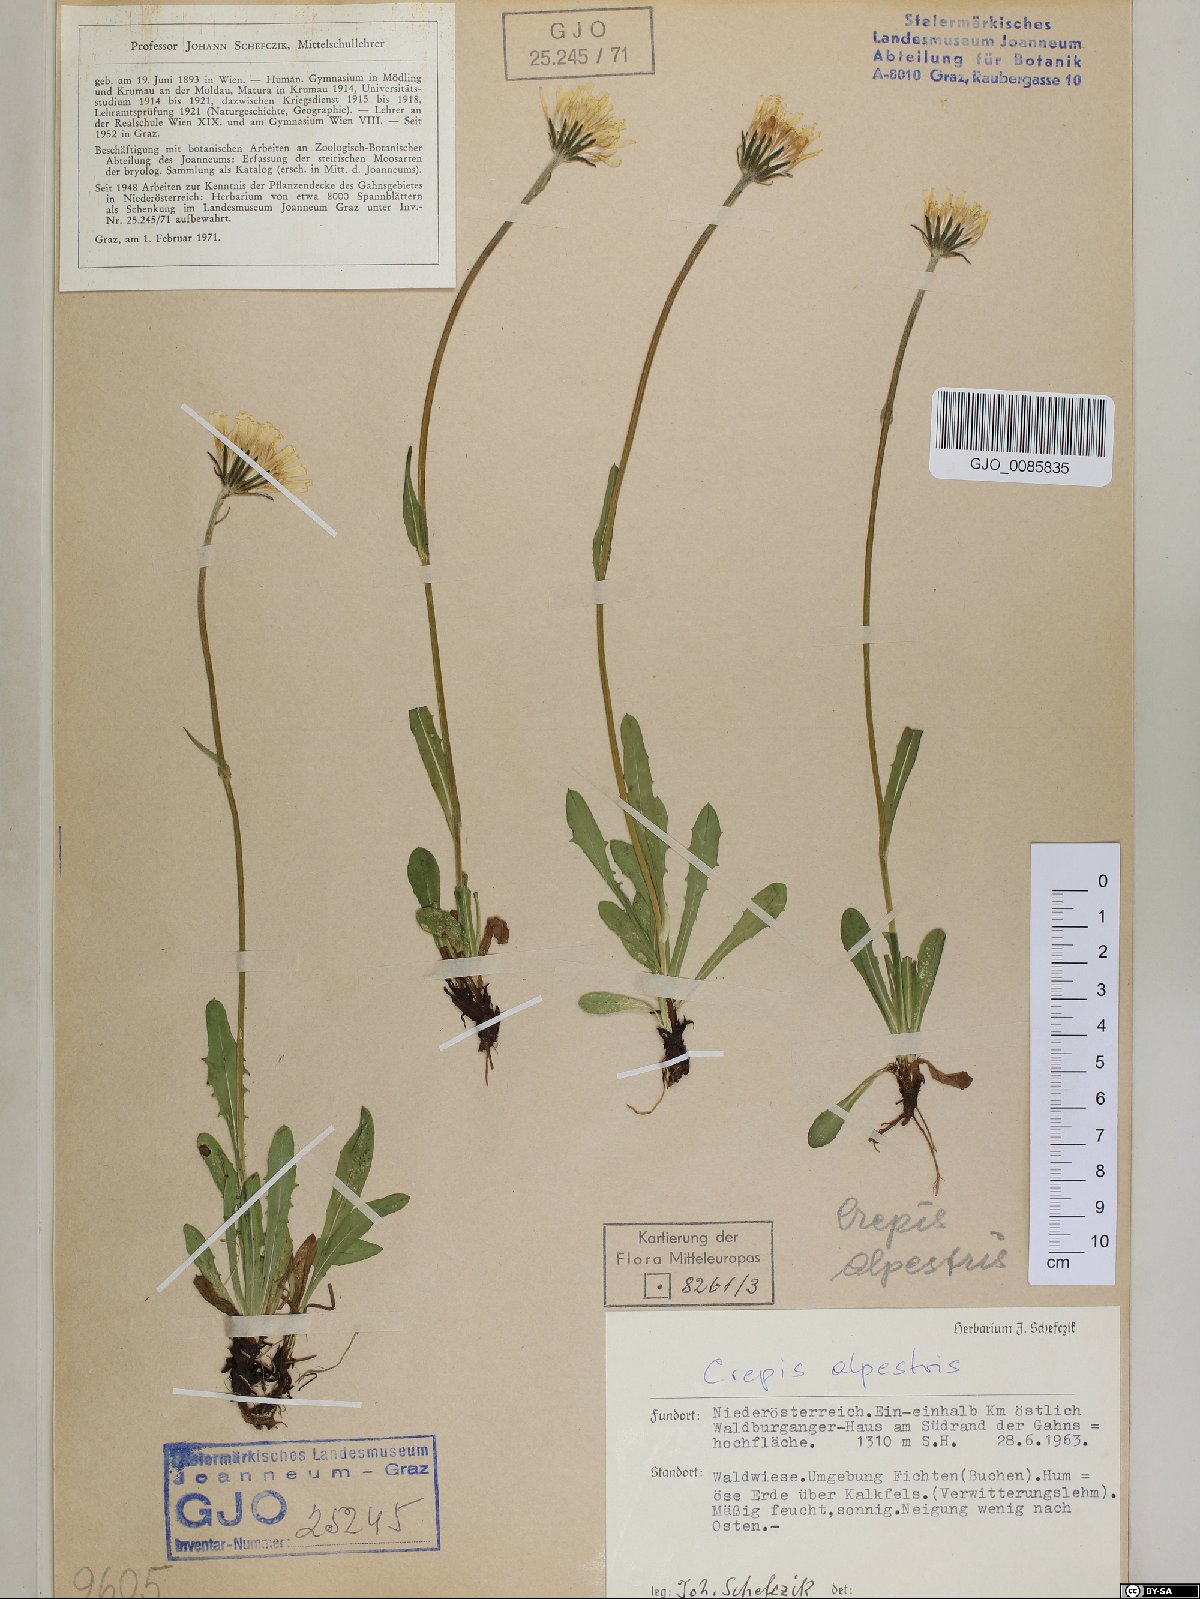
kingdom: Plantae
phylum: Tracheophyta
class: Magnoliopsida
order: Asterales
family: Asteraceae
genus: Crepis
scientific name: Crepis alpestris
